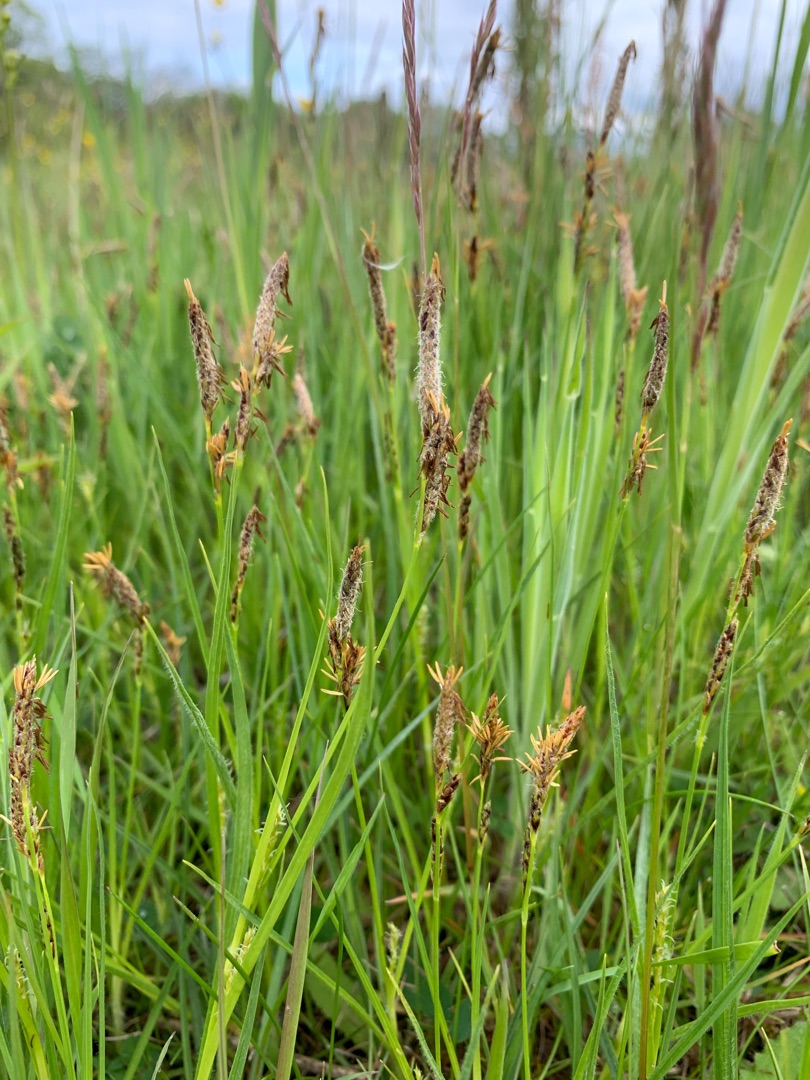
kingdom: Plantae
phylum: Tracheophyta
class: Liliopsida
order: Poales
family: Cyperaceae
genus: Carex
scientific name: Carex hirta
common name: Håret star
